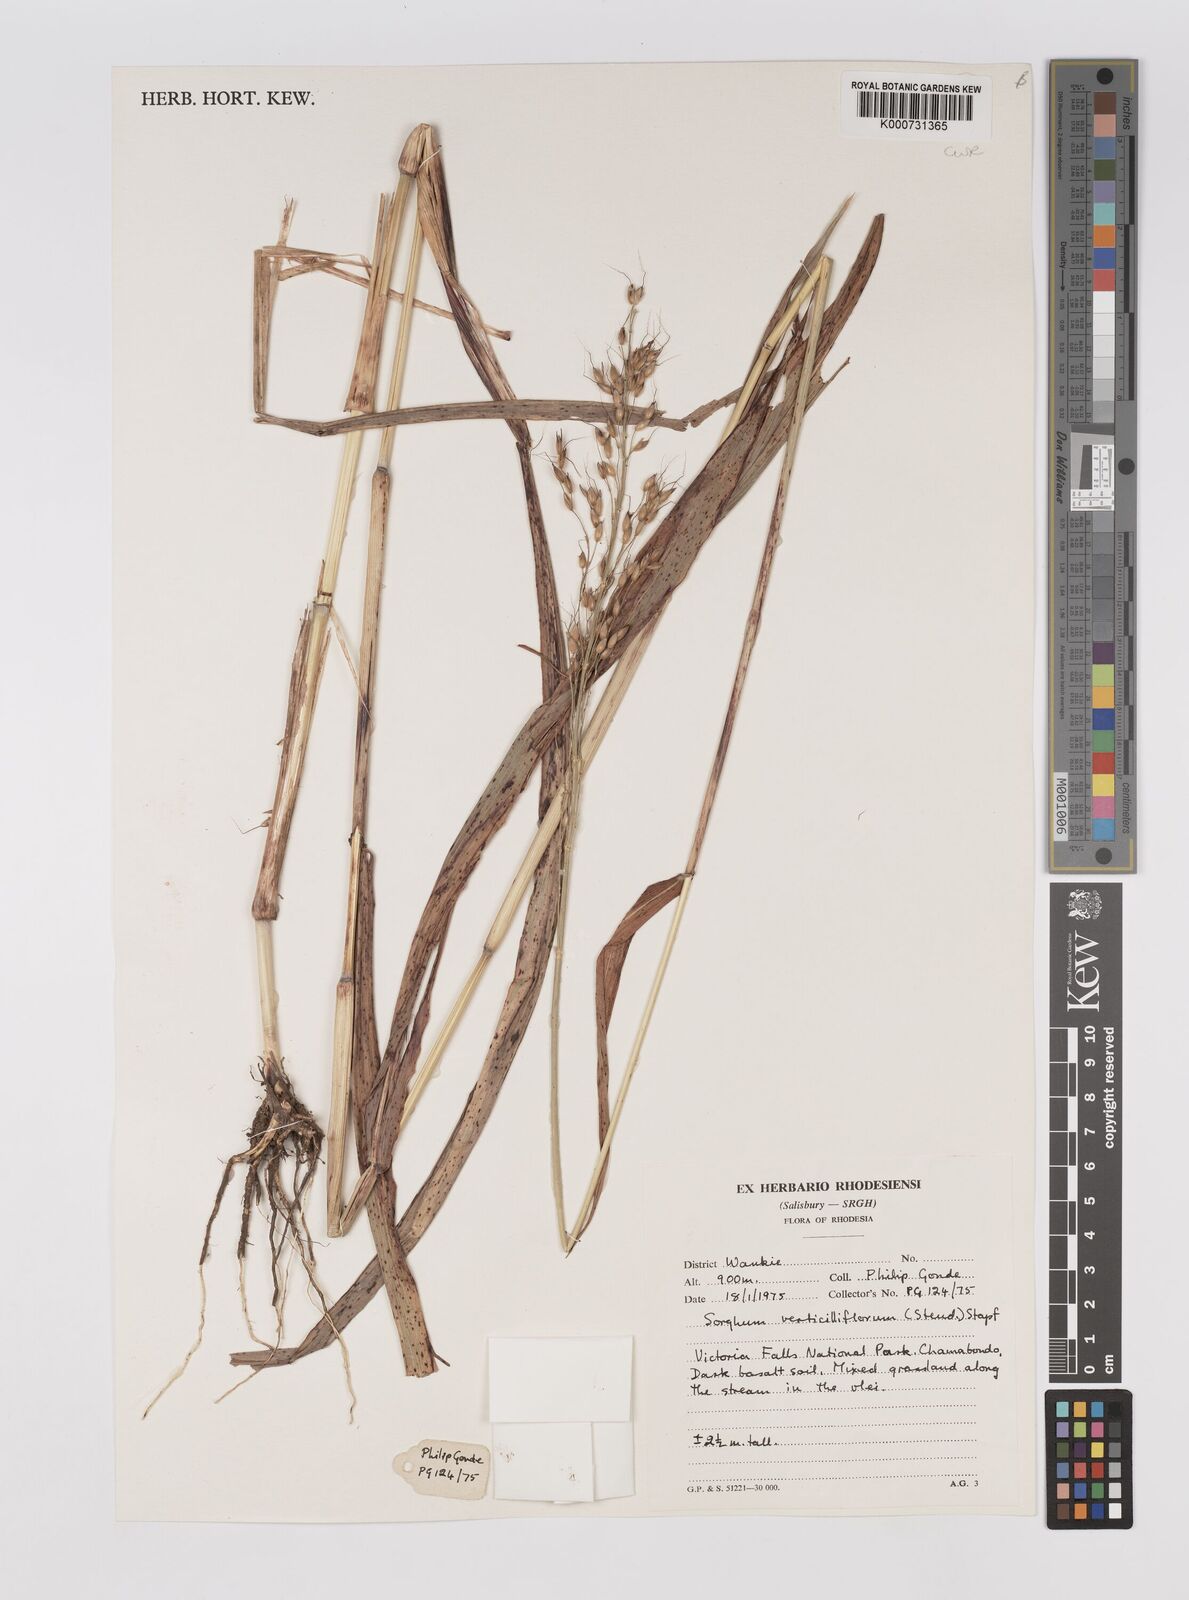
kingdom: Plantae
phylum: Tracheophyta
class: Liliopsida
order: Poales
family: Poaceae
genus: Sorghum
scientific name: Sorghum arundinaceum
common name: Sorghum
